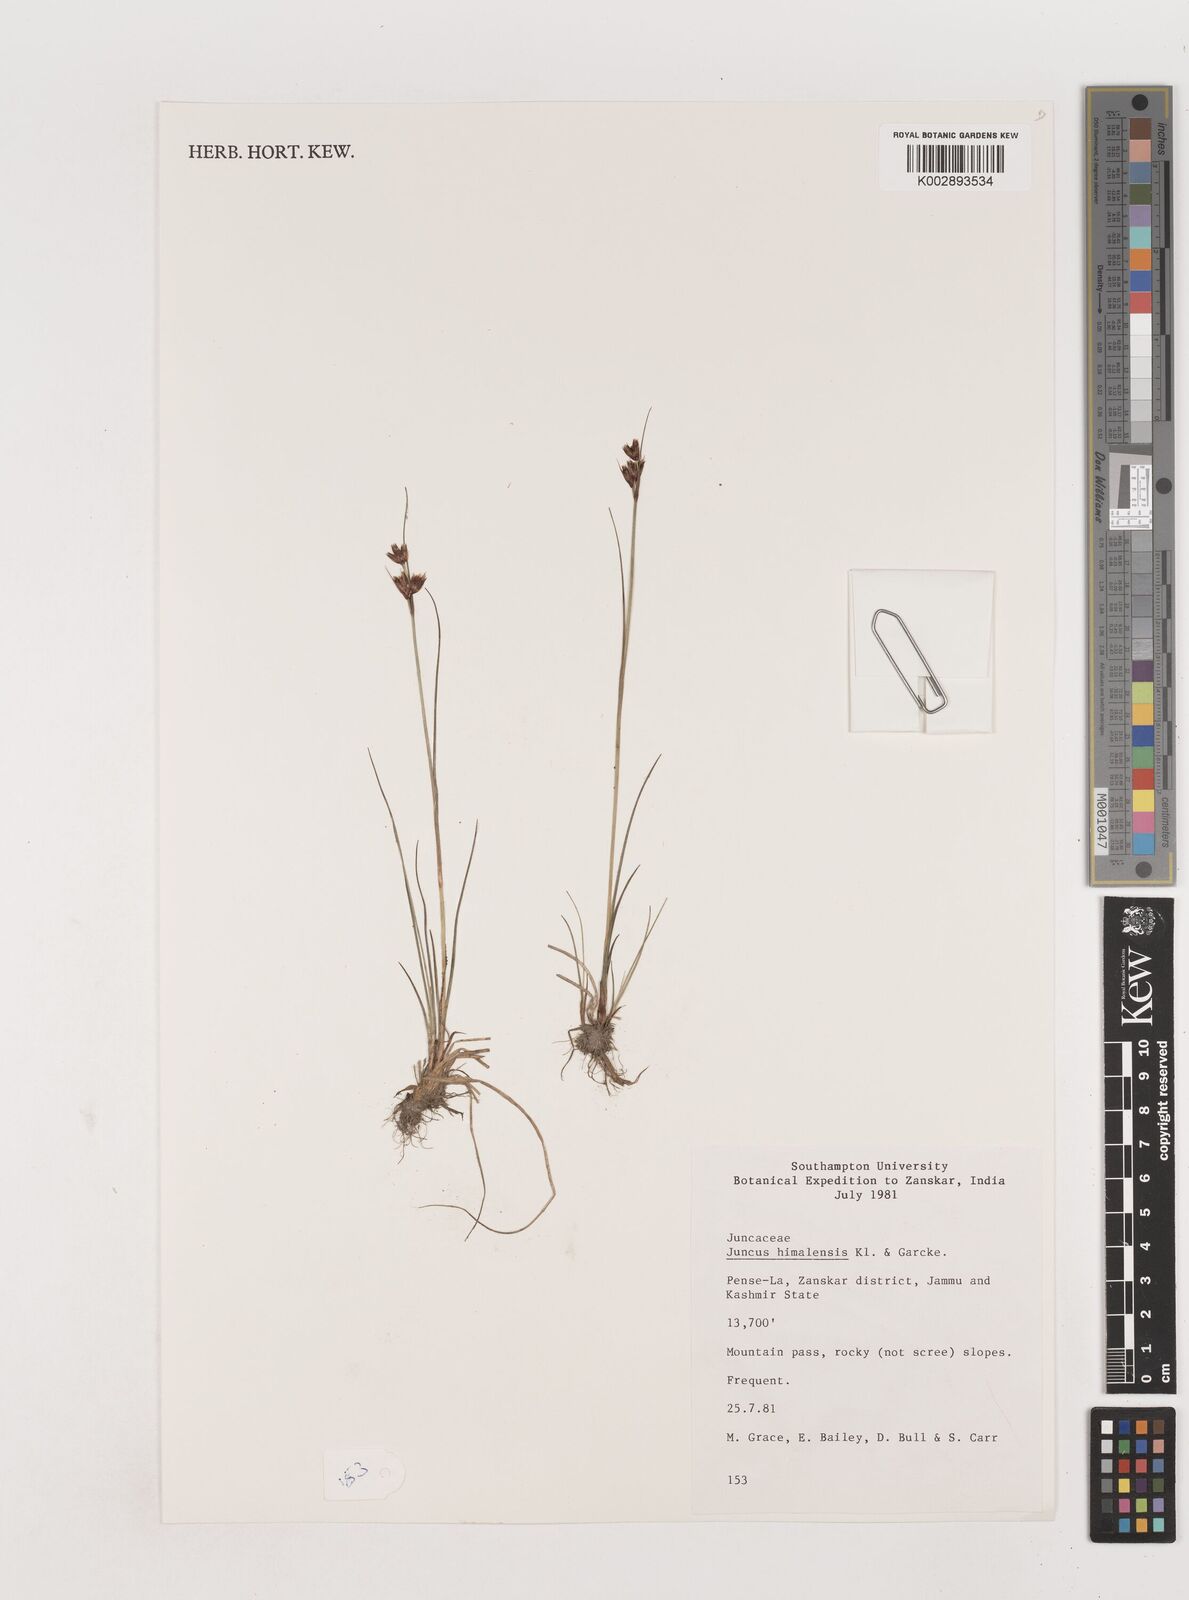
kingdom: Plantae
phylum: Tracheophyta
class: Liliopsida
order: Poales
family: Juncaceae
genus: Juncus
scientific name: Juncus himalensis
